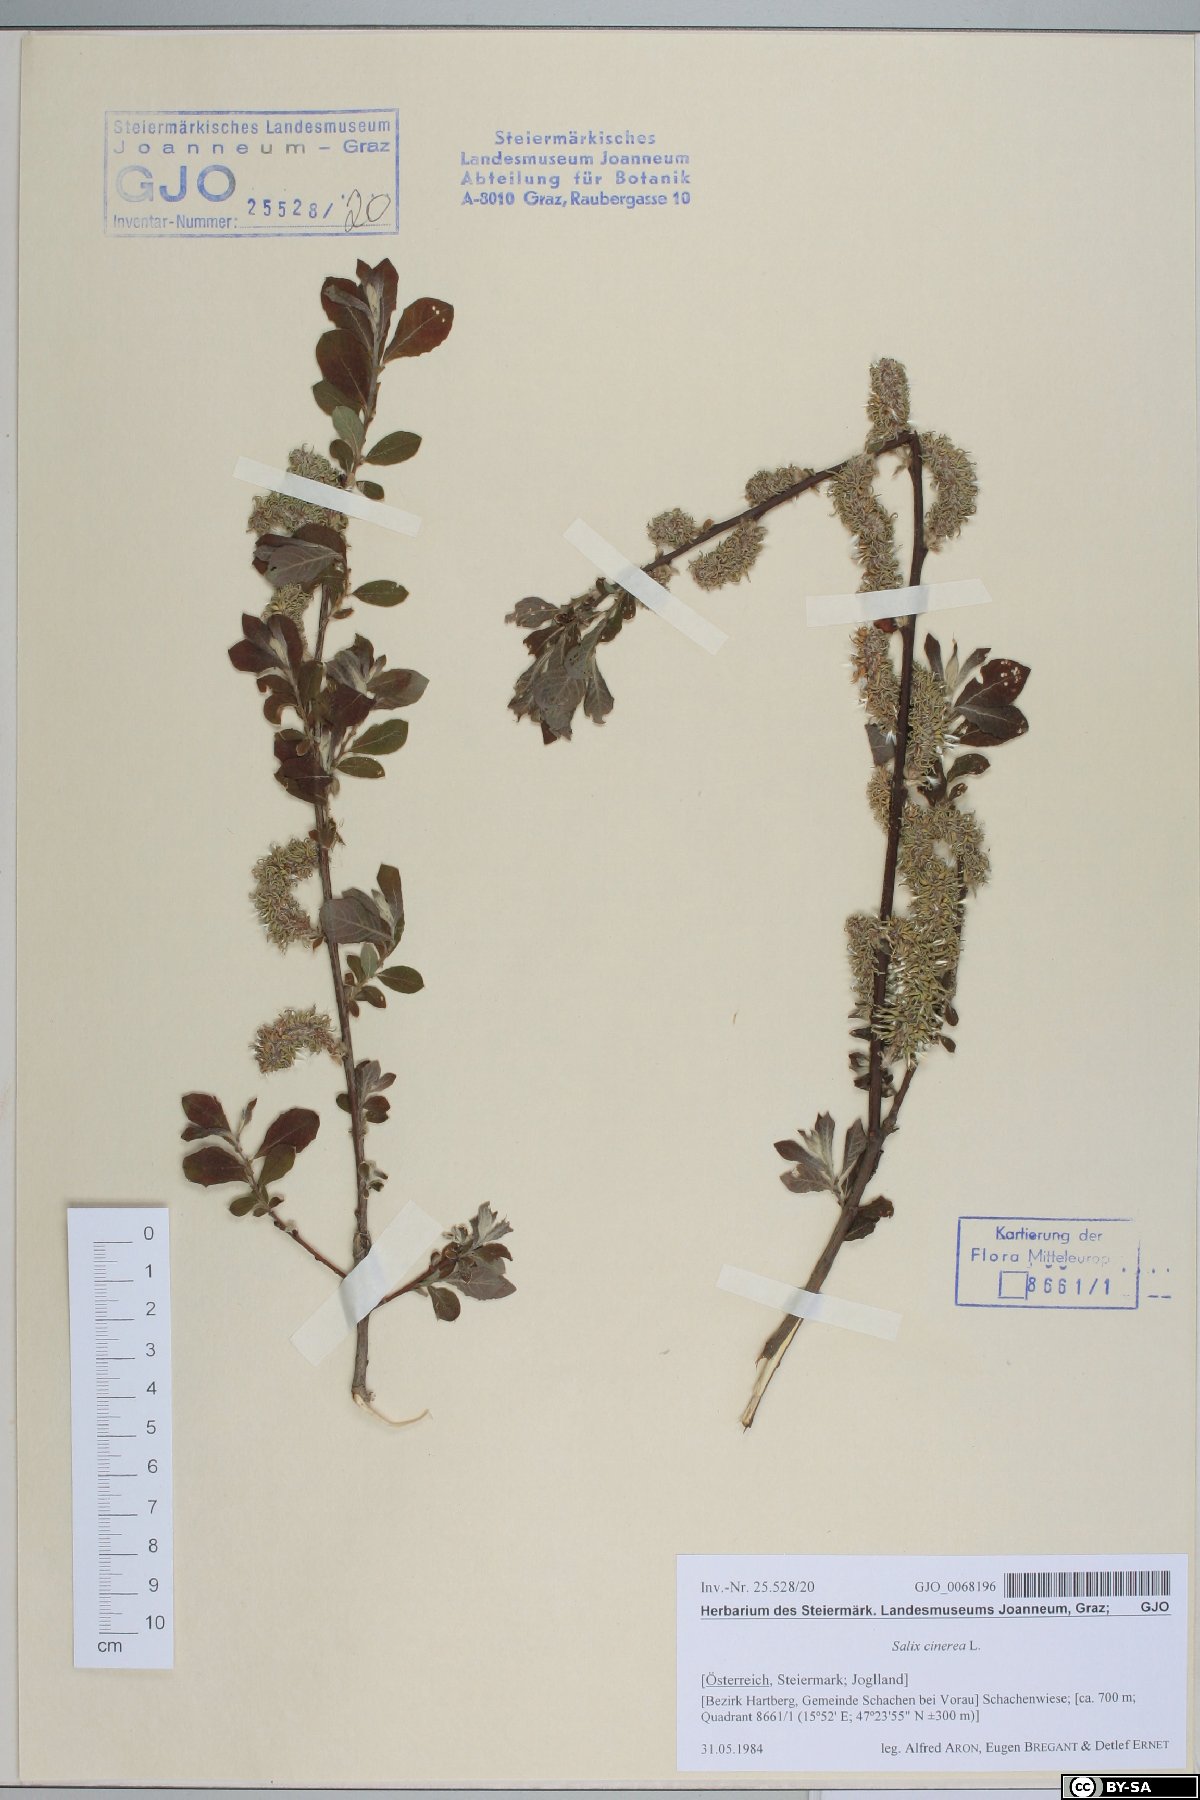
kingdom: Plantae
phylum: Tracheophyta
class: Magnoliopsida
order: Malpighiales
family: Salicaceae
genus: Salix
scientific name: Salix cinerea
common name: Common sallow
